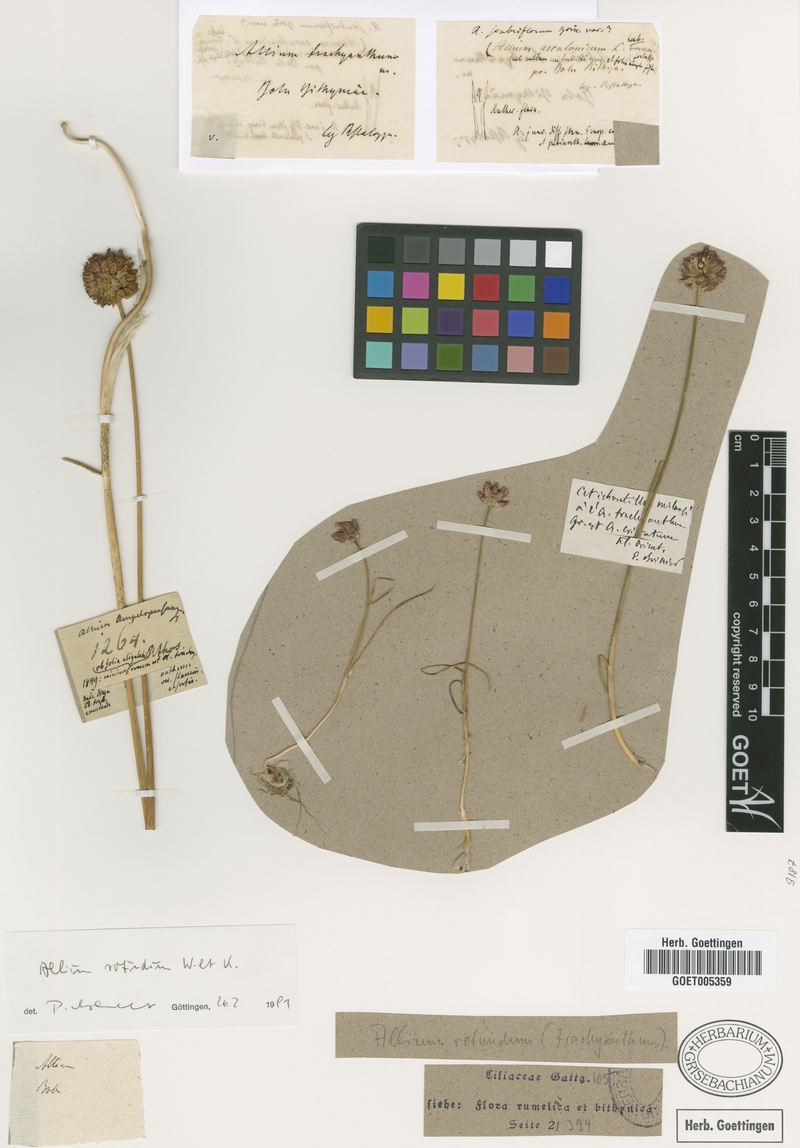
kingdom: Plantae
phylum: Tracheophyta
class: Liliopsida
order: Asparagales
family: Amaryllidaceae
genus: Allium
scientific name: Allium rotundum
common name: Sand leek
